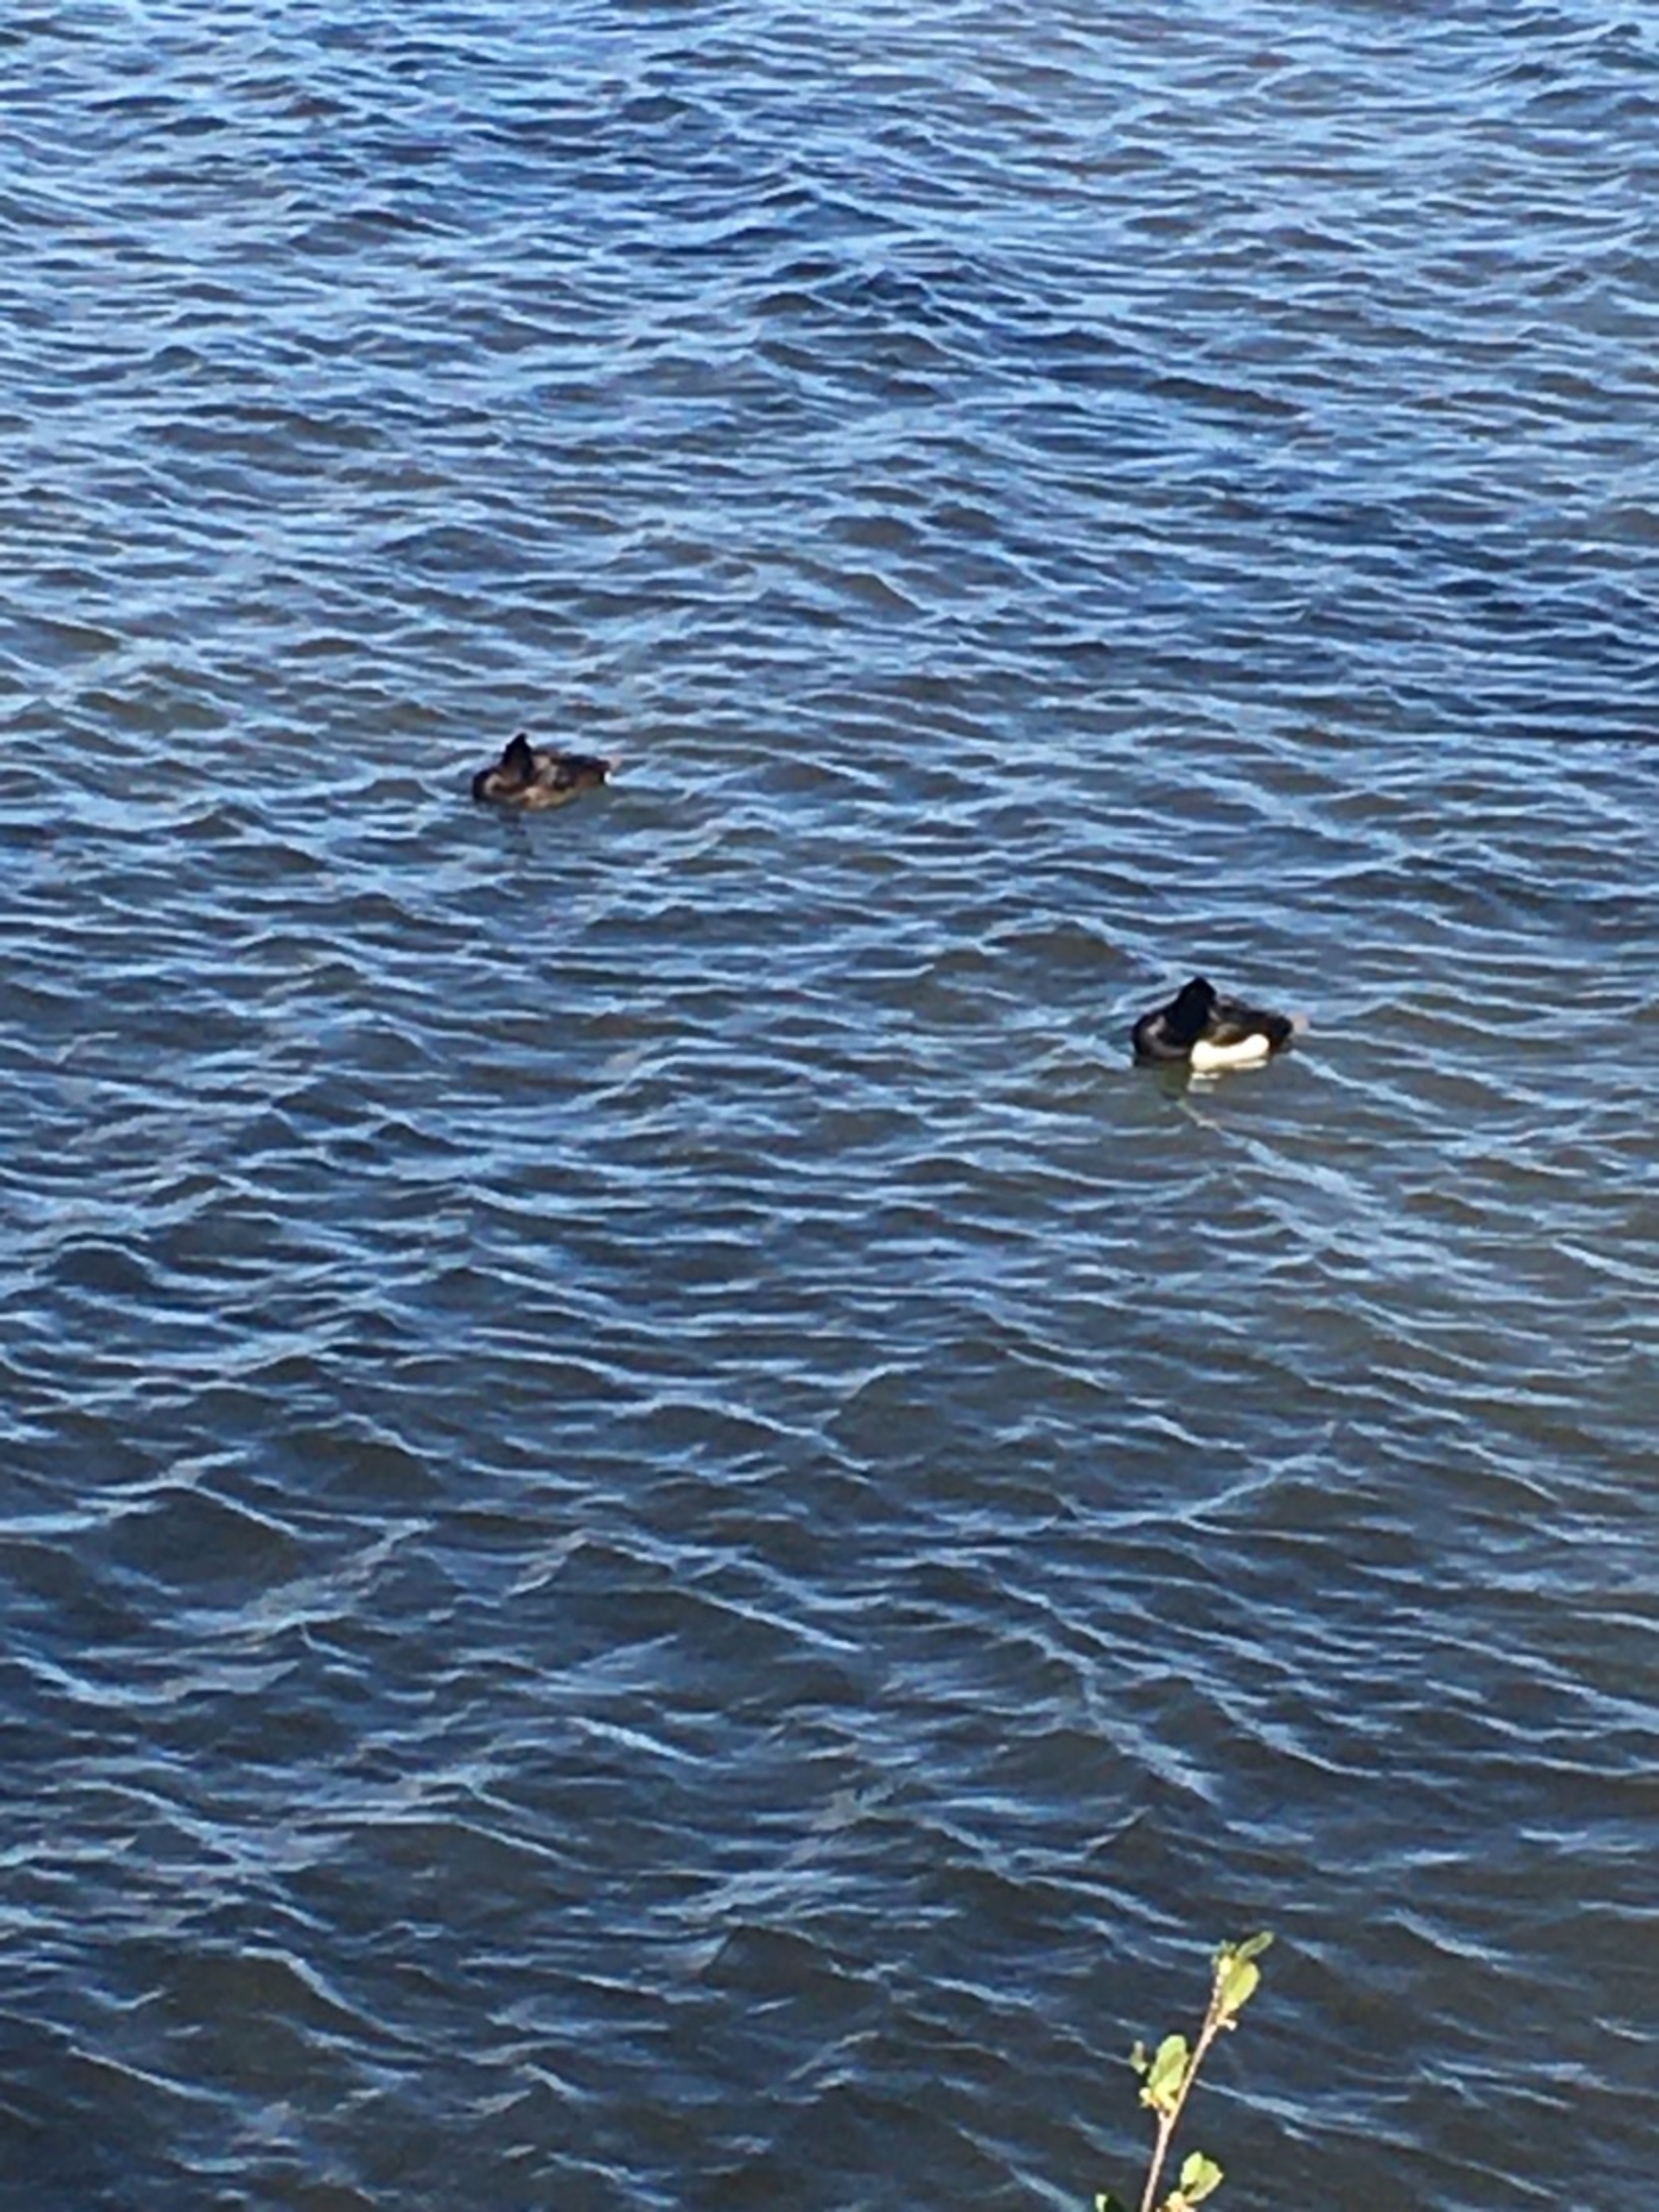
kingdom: Animalia
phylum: Chordata
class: Aves
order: Anseriformes
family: Anatidae
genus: Aythya
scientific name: Aythya fuligula
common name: Troldand
